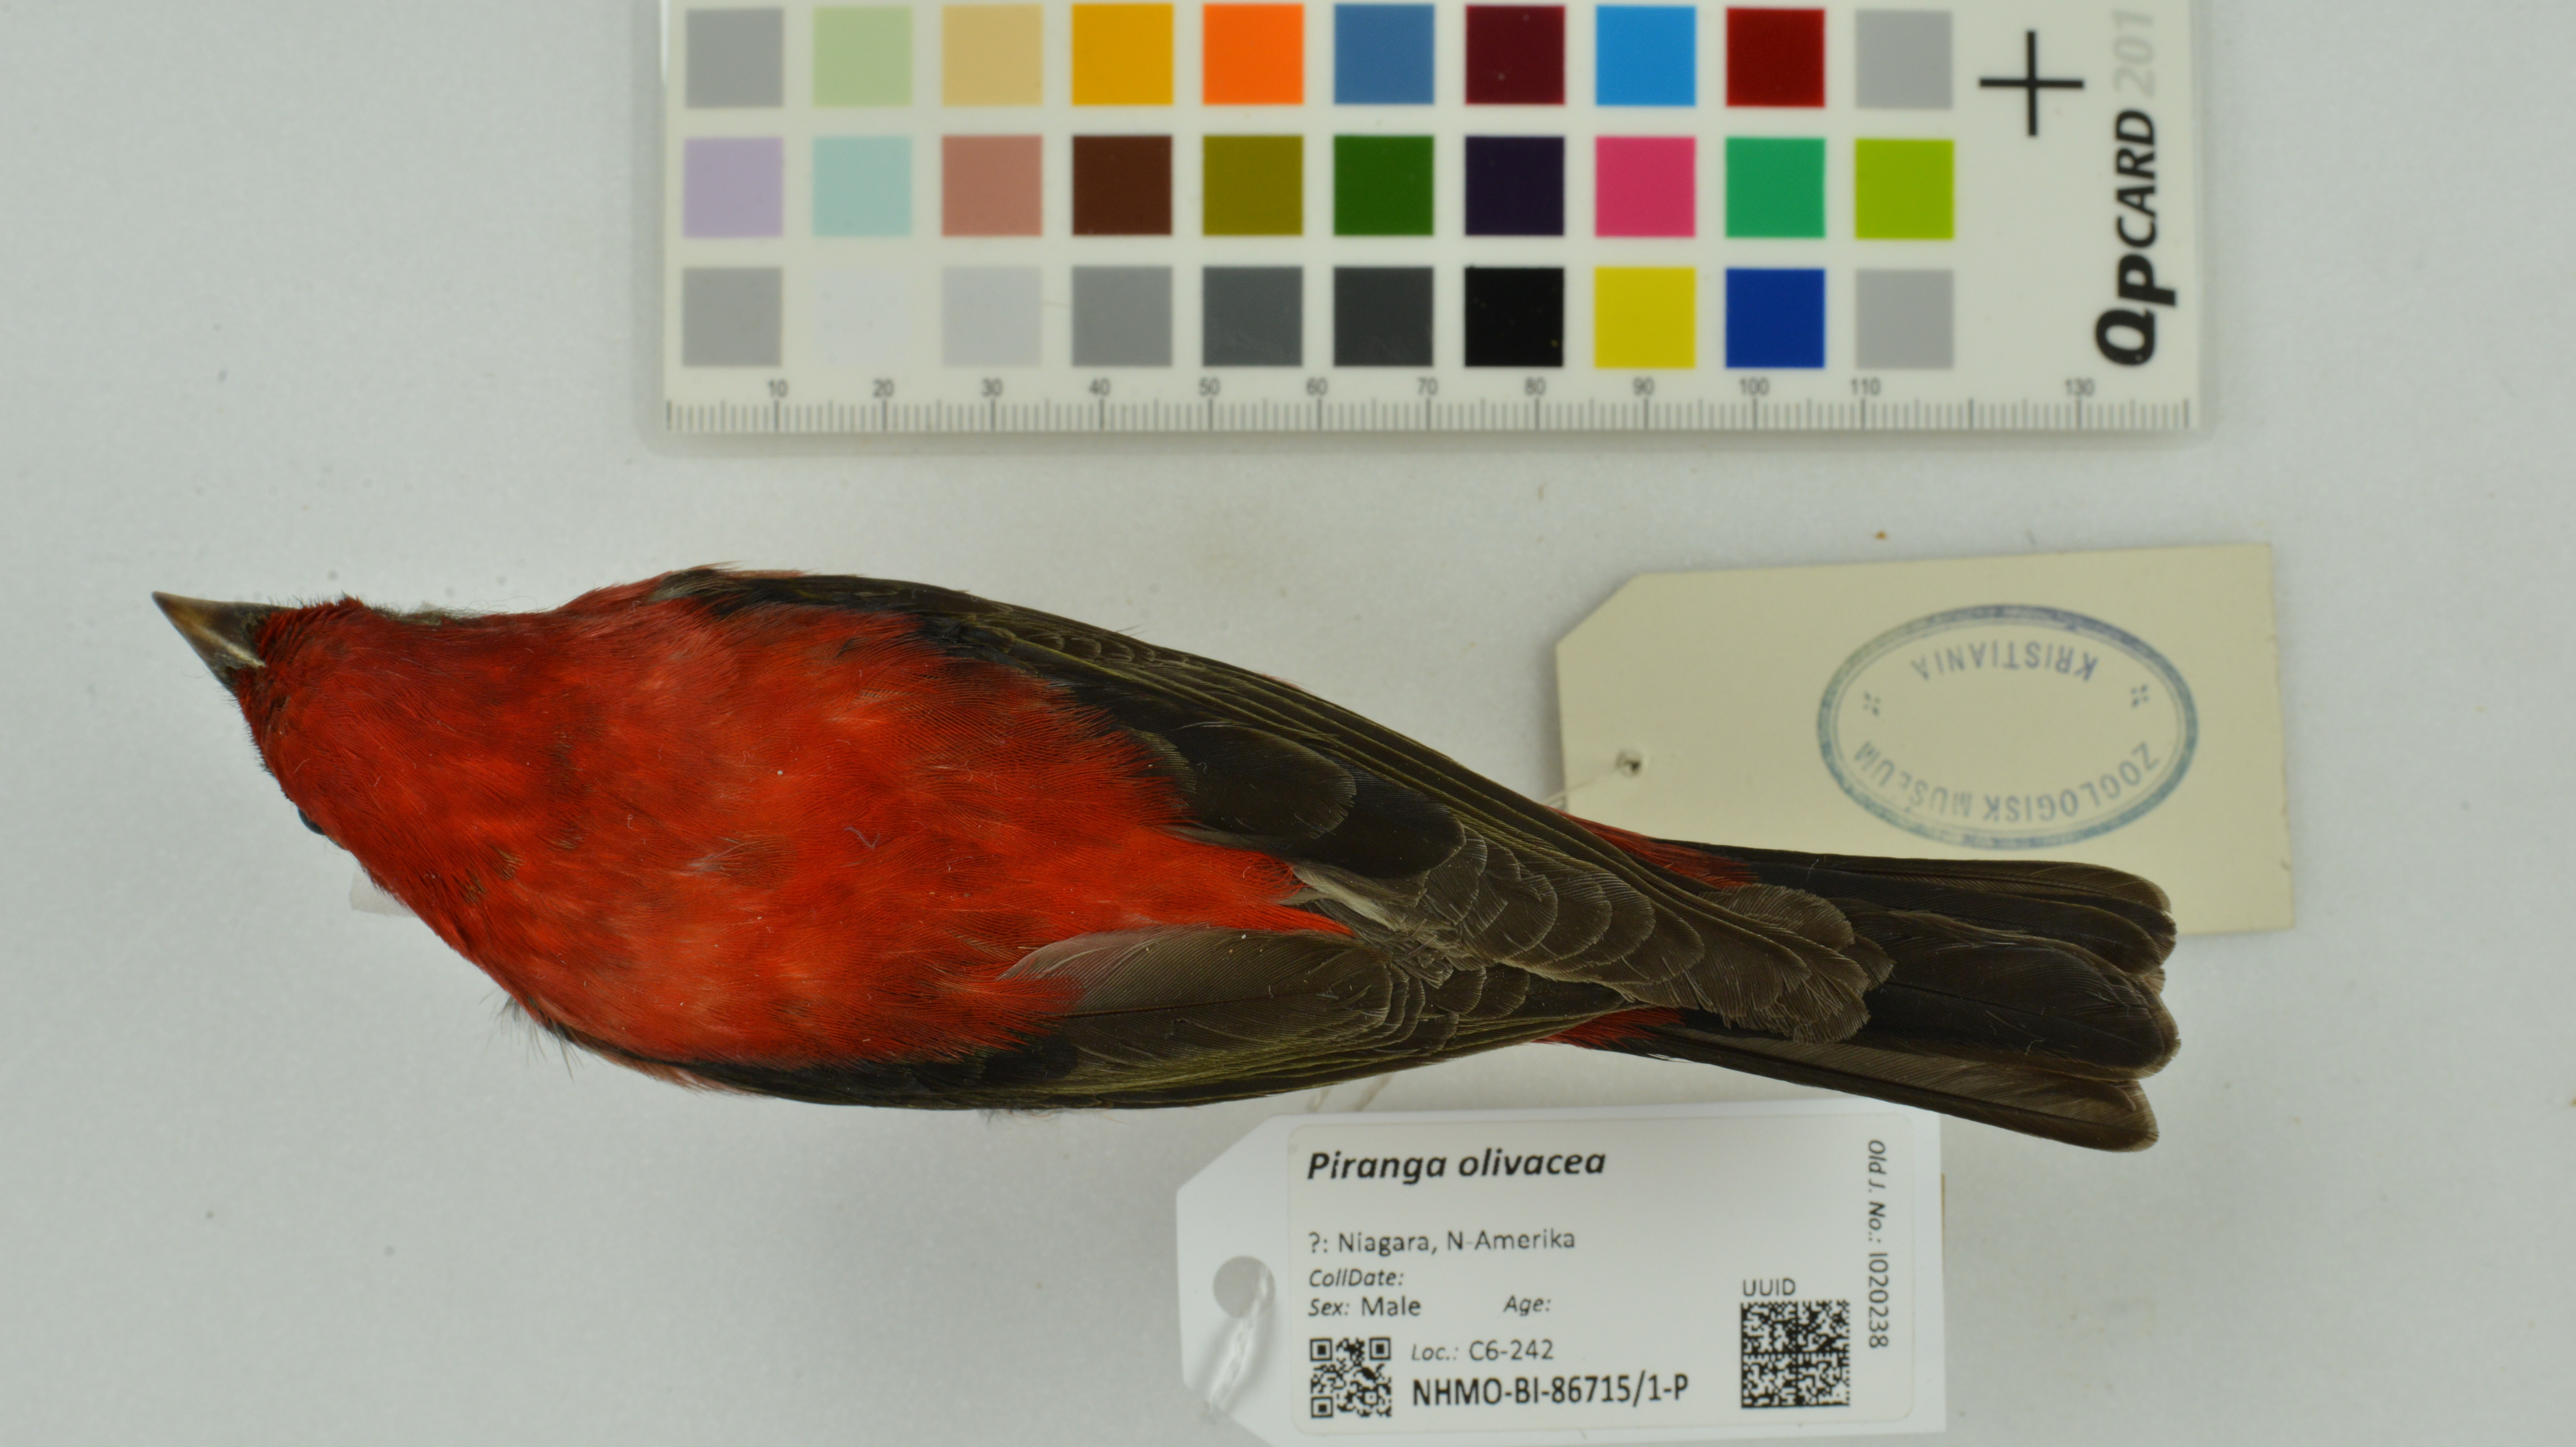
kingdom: Animalia
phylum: Chordata
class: Aves
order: Passeriformes
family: Cardinalidae
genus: Piranga
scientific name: Piranga olivacea
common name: Scarlet tanager
